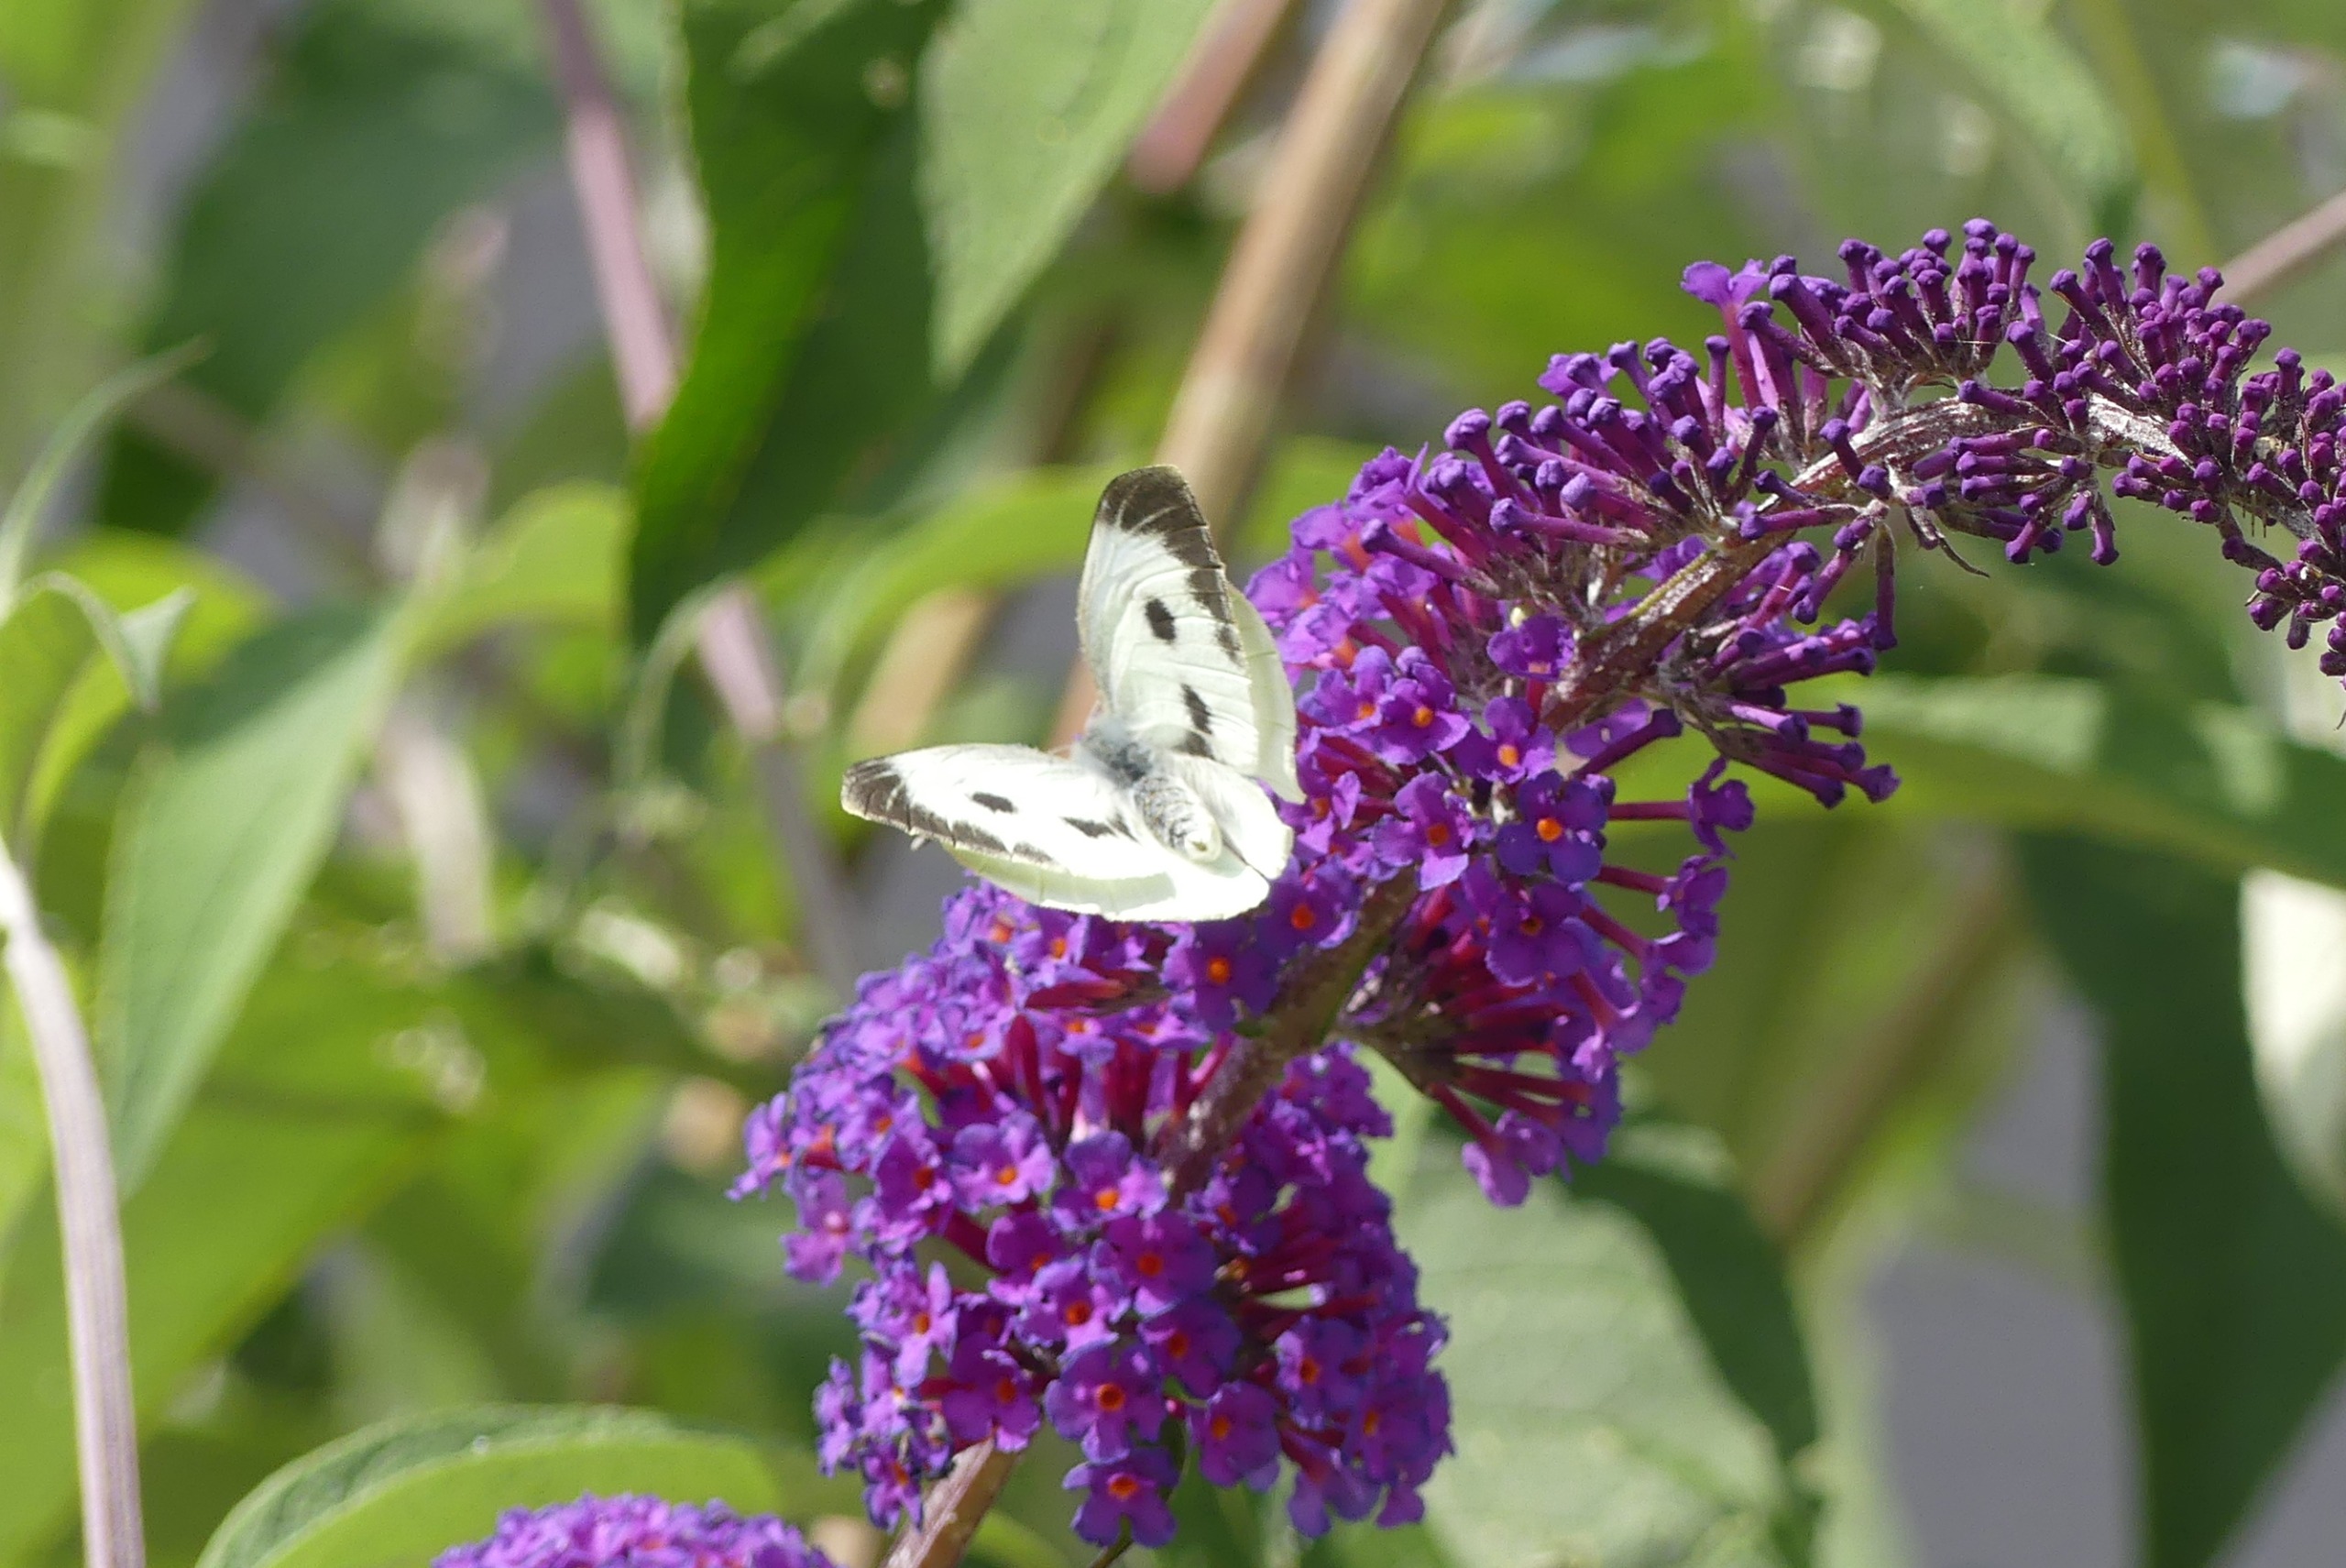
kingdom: Animalia
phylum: Arthropoda
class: Insecta
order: Lepidoptera
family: Pieridae
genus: Pieris
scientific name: Pieris brassicae
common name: Stor kålsommerfugl
